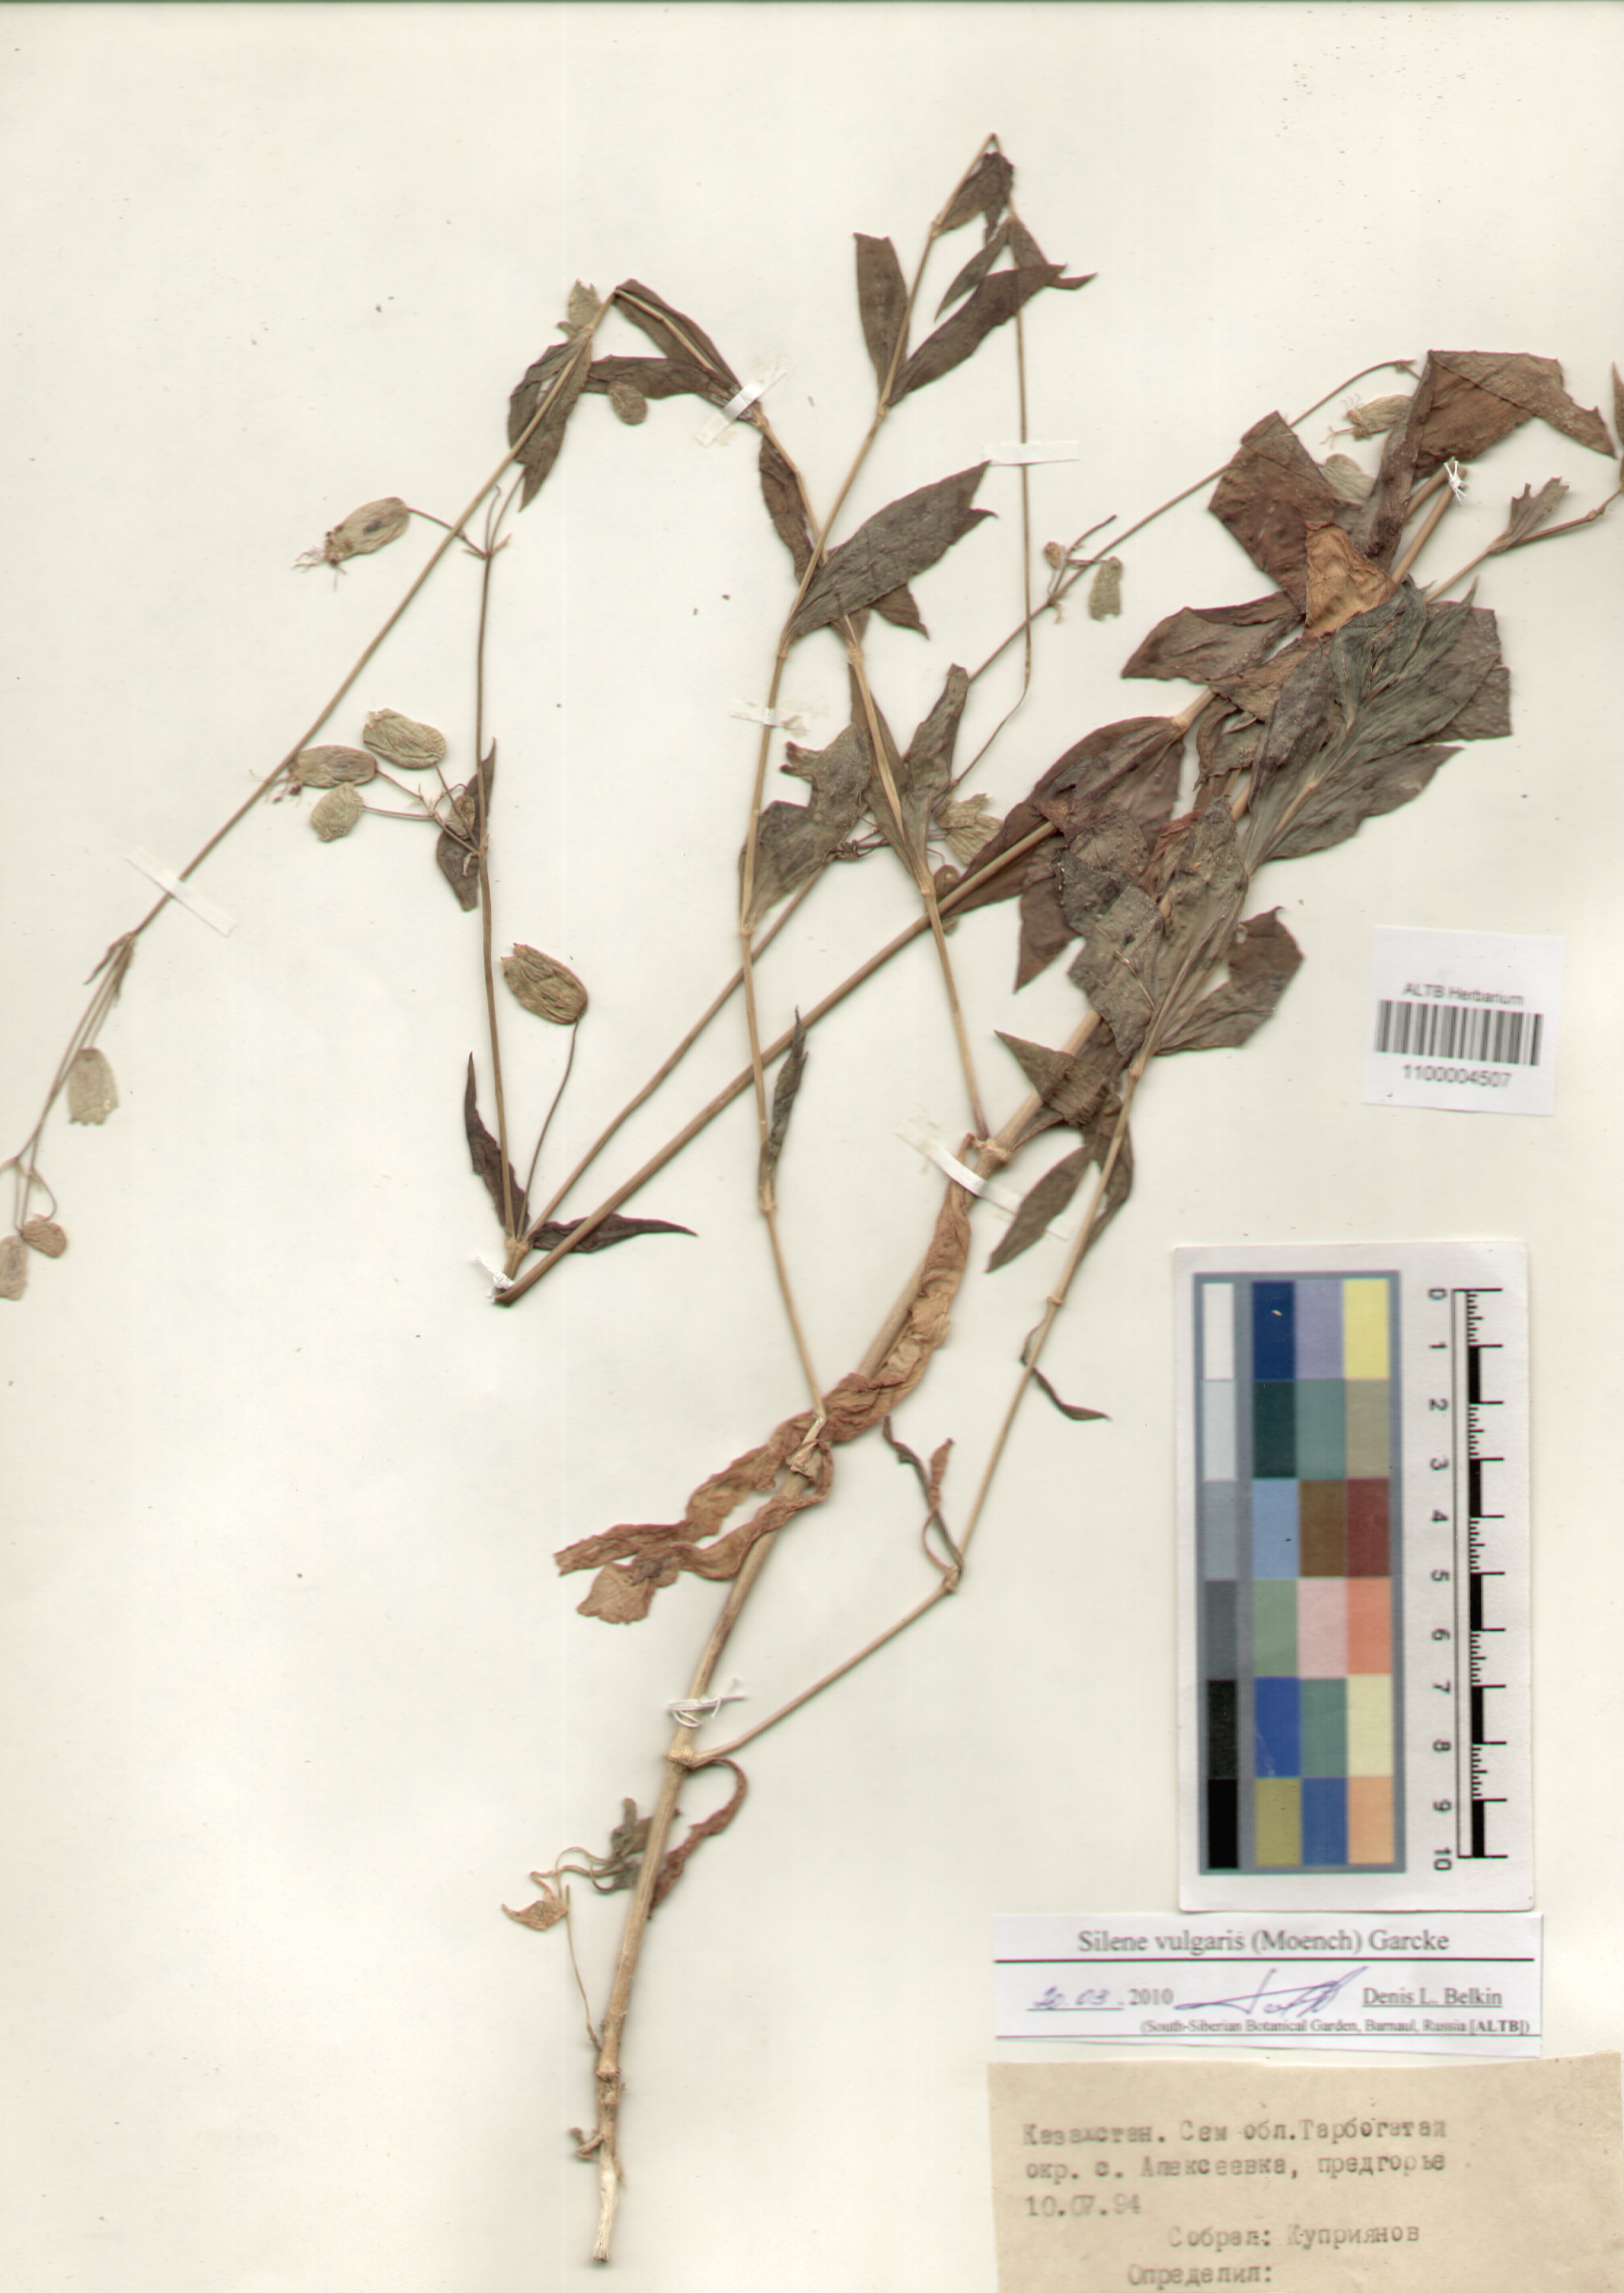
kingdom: Plantae
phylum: Tracheophyta
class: Magnoliopsida
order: Caryophyllales
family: Caryophyllaceae
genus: Silene
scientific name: Silene vulgaris
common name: Bladder campion
